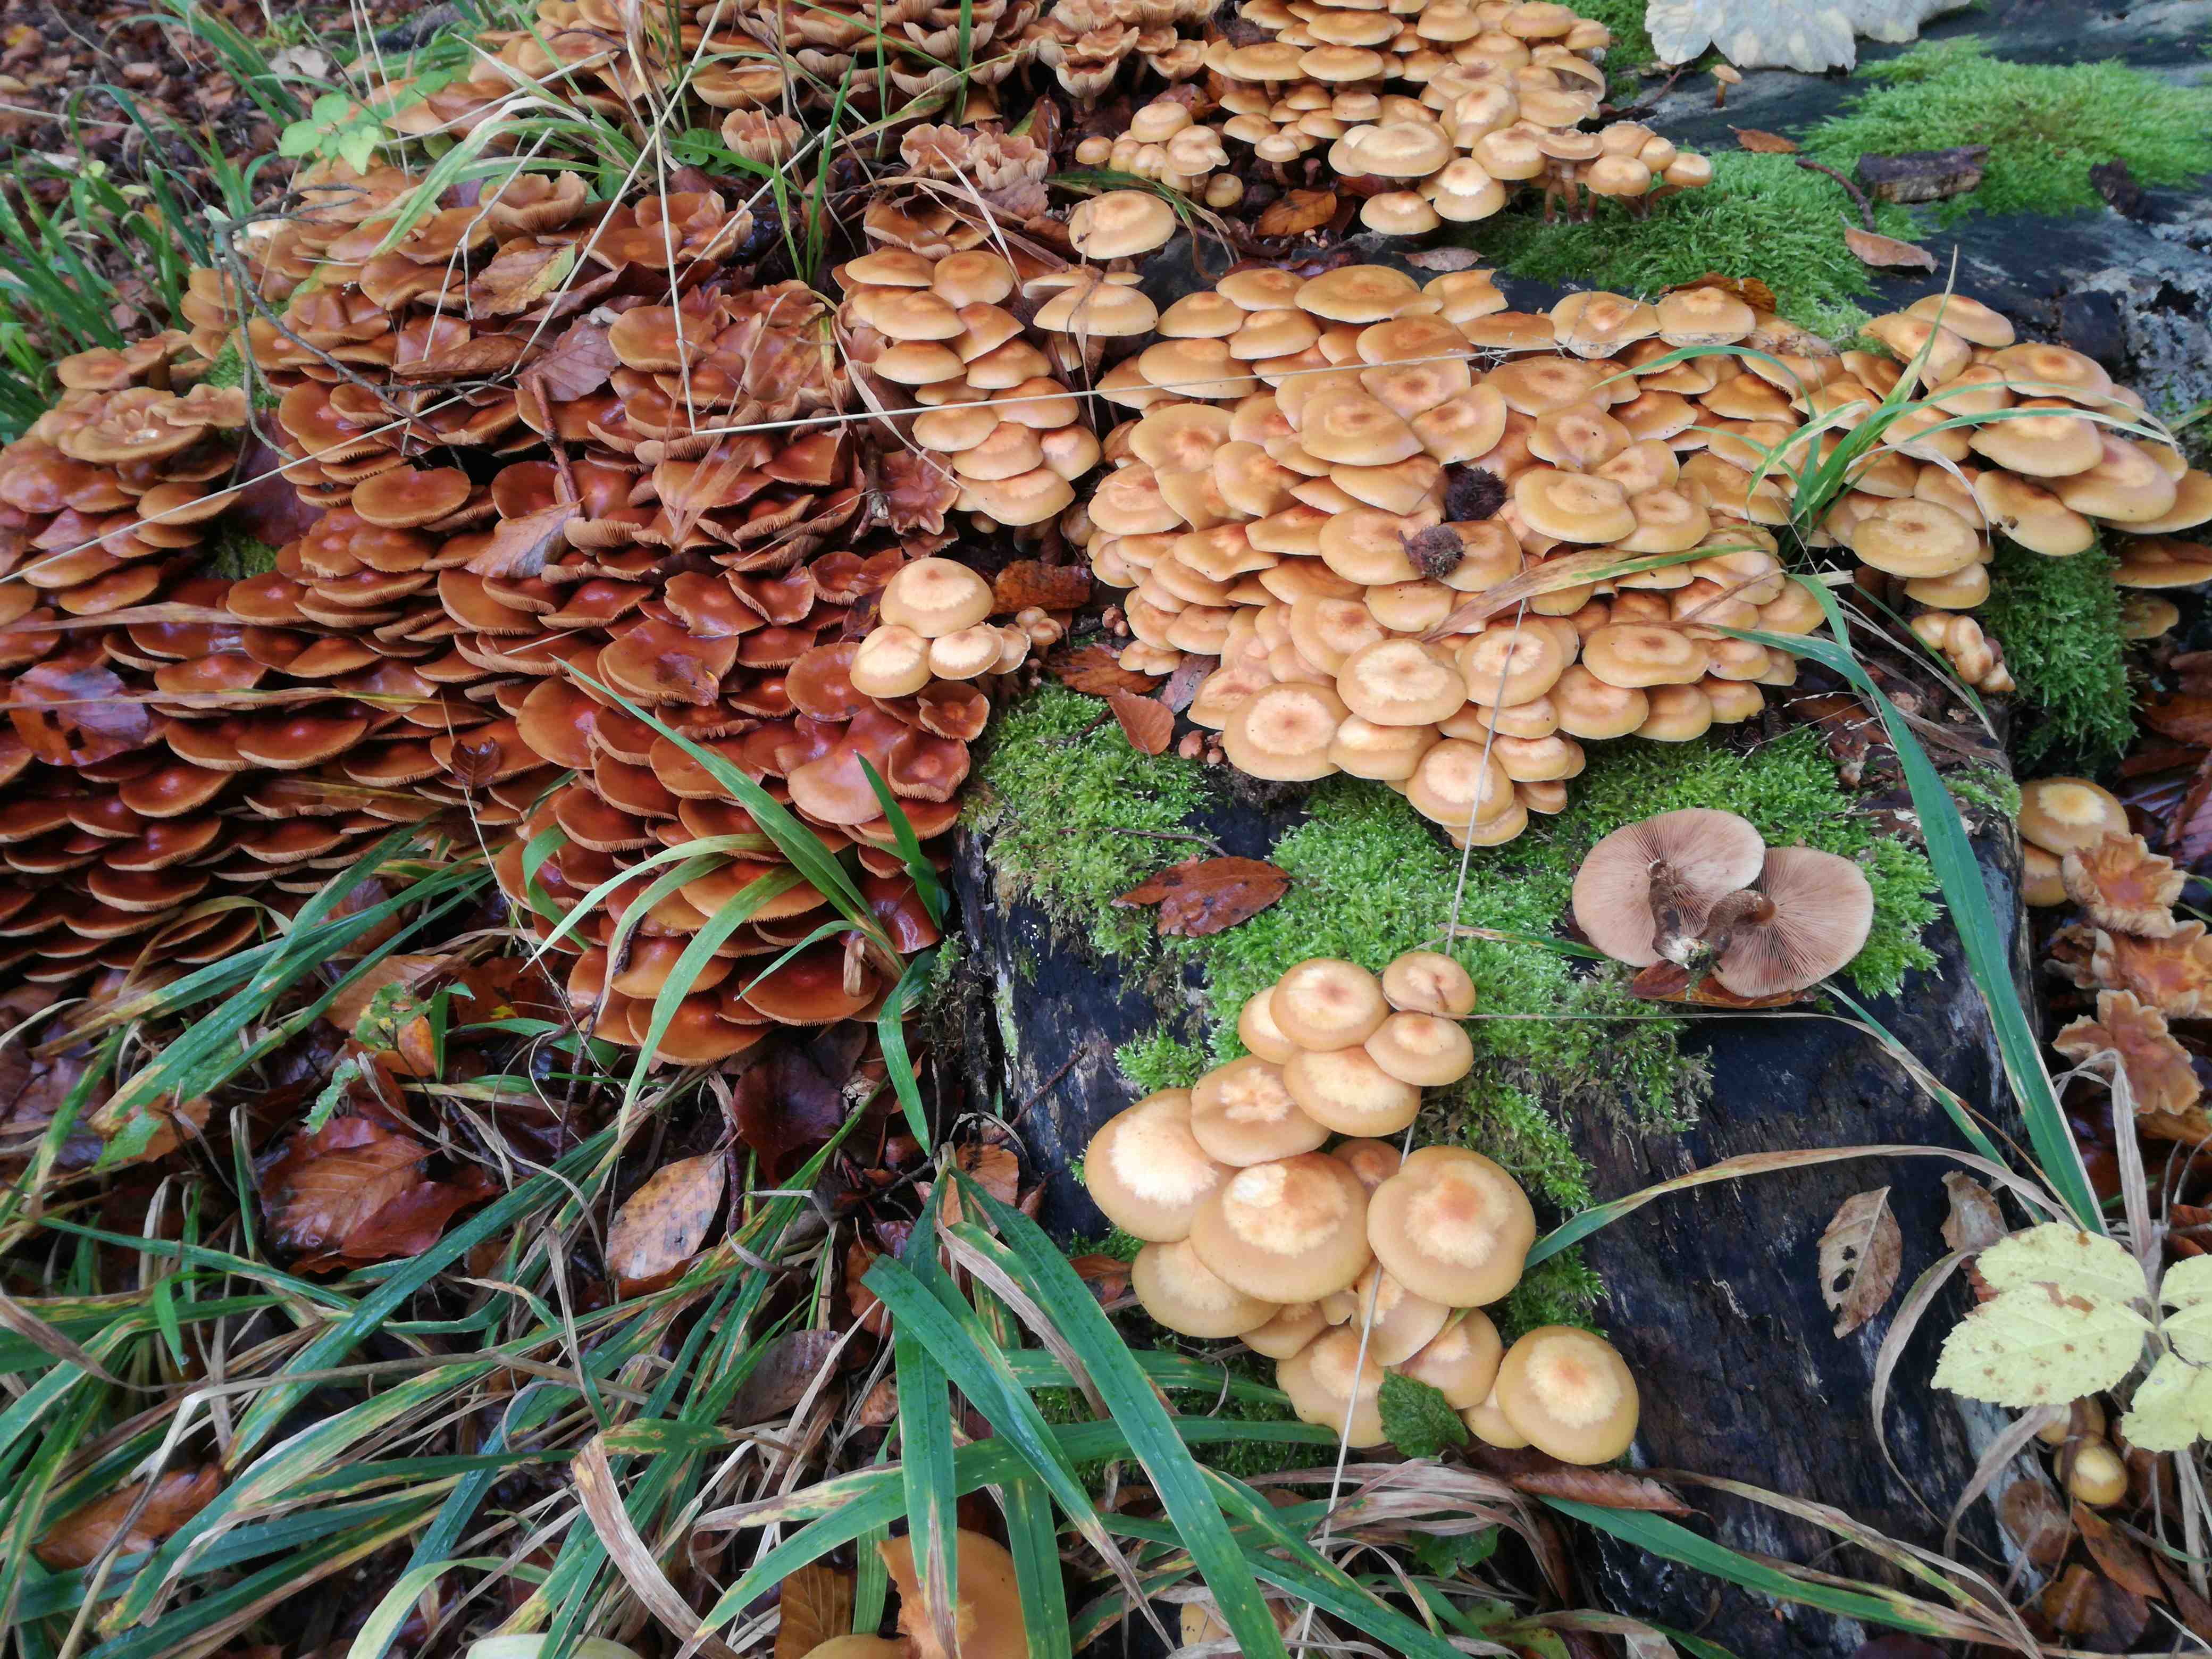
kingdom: Fungi
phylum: Basidiomycota
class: Agaricomycetes
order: Agaricales
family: Strophariaceae
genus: Kuehneromyces
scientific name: Kuehneromyces mutabilis
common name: foranderlig skælhat
